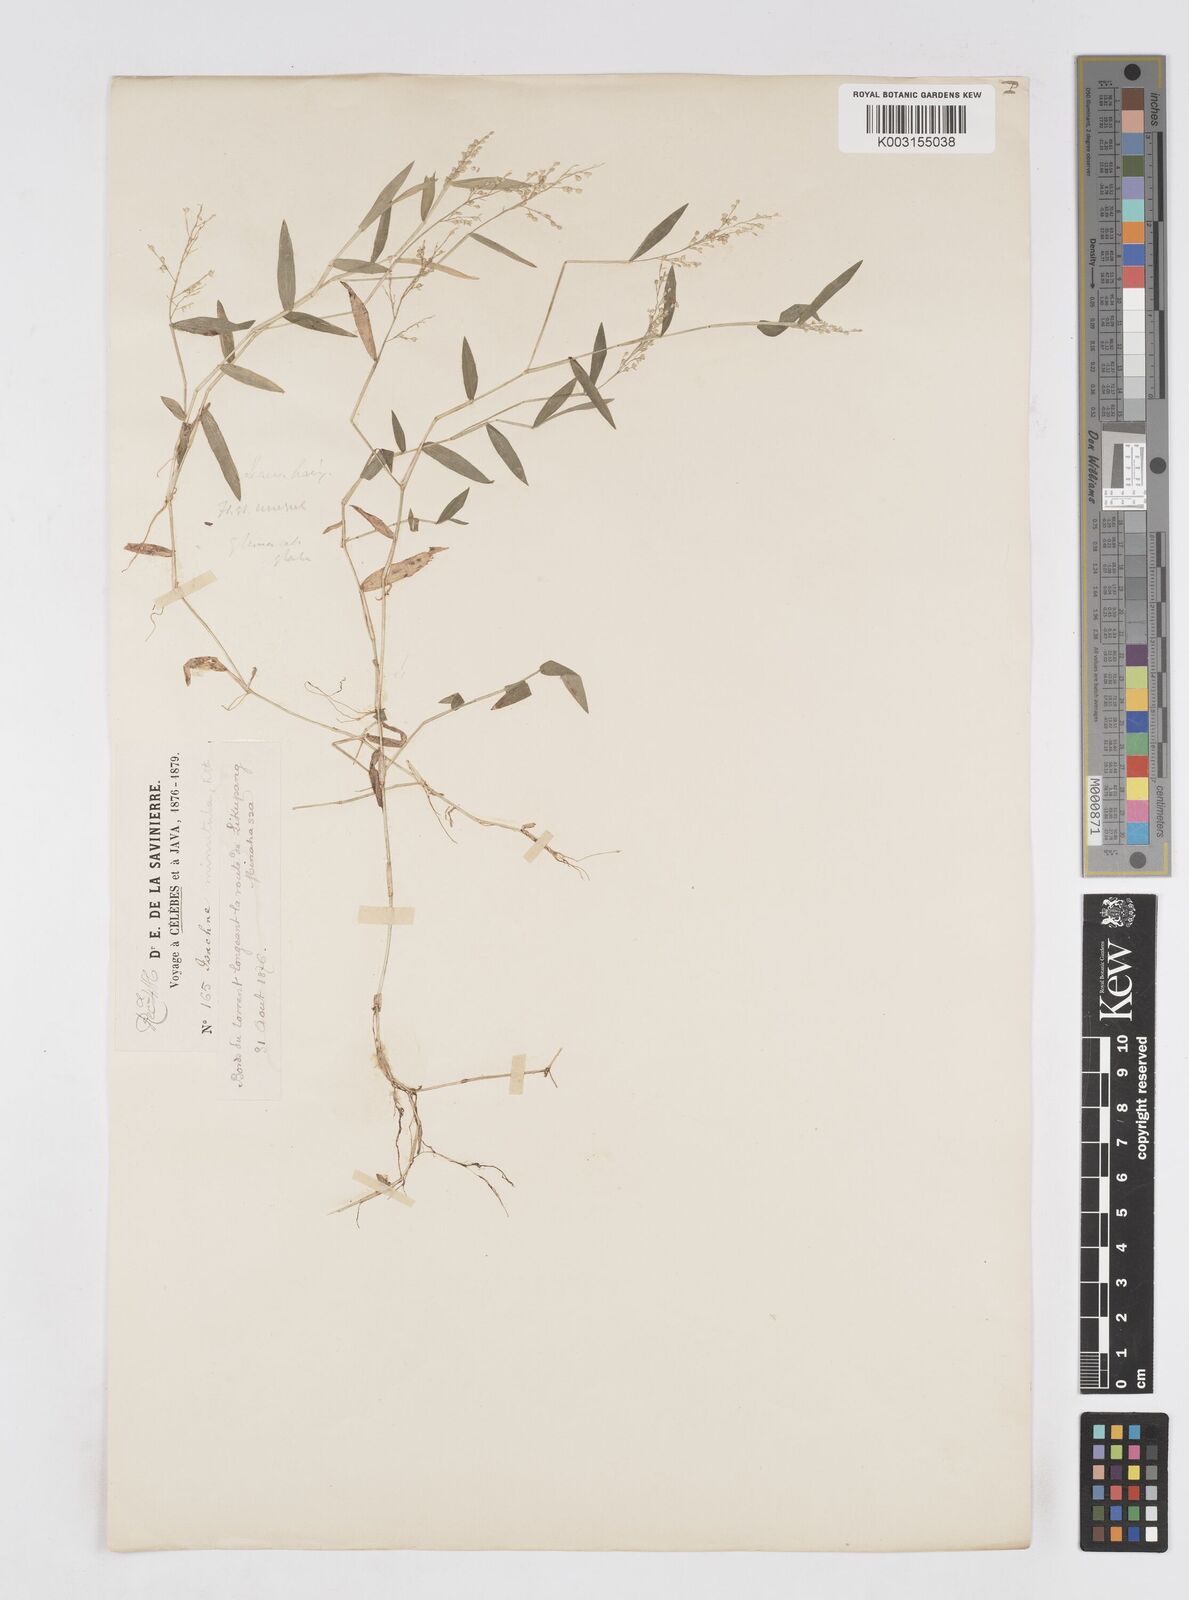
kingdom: Plantae
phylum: Tracheophyta
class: Liliopsida
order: Poales
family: Poaceae
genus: Isachne
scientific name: Isachne globosa
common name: Swamp millet
